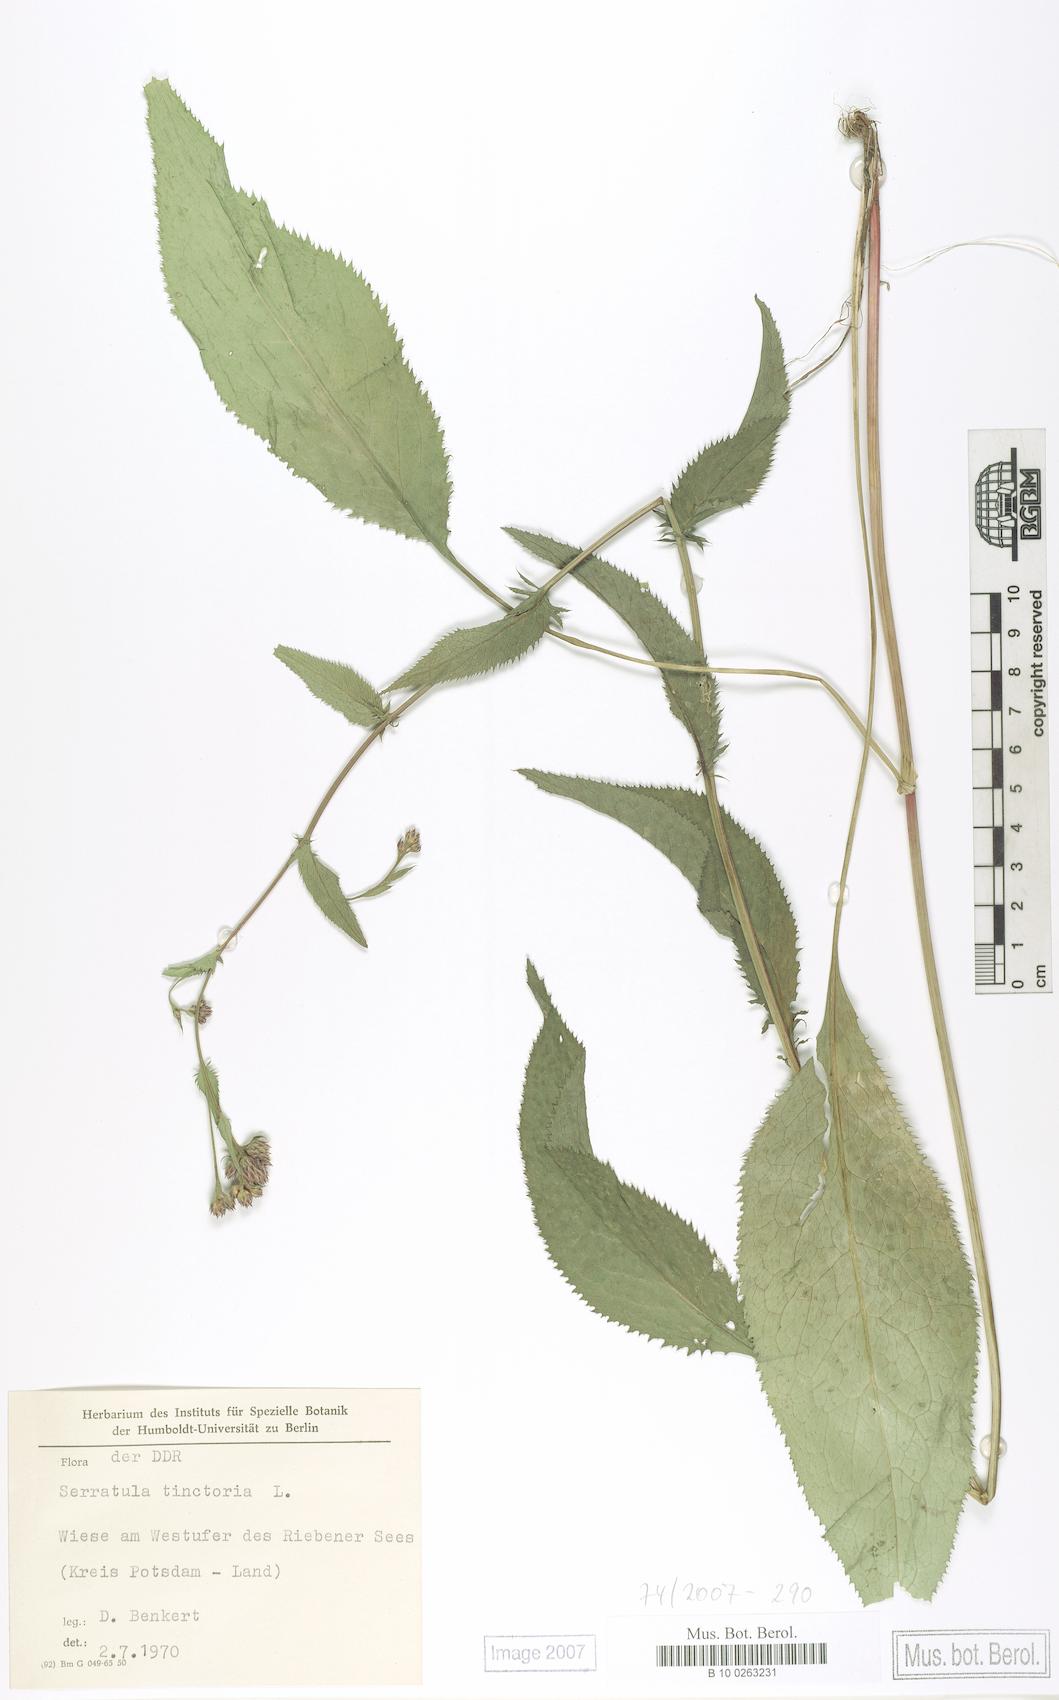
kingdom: Plantae
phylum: Tracheophyta
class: Magnoliopsida
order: Asterales
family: Asteraceae
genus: Serratula
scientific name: Serratula tinctoria
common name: Saw-wort
